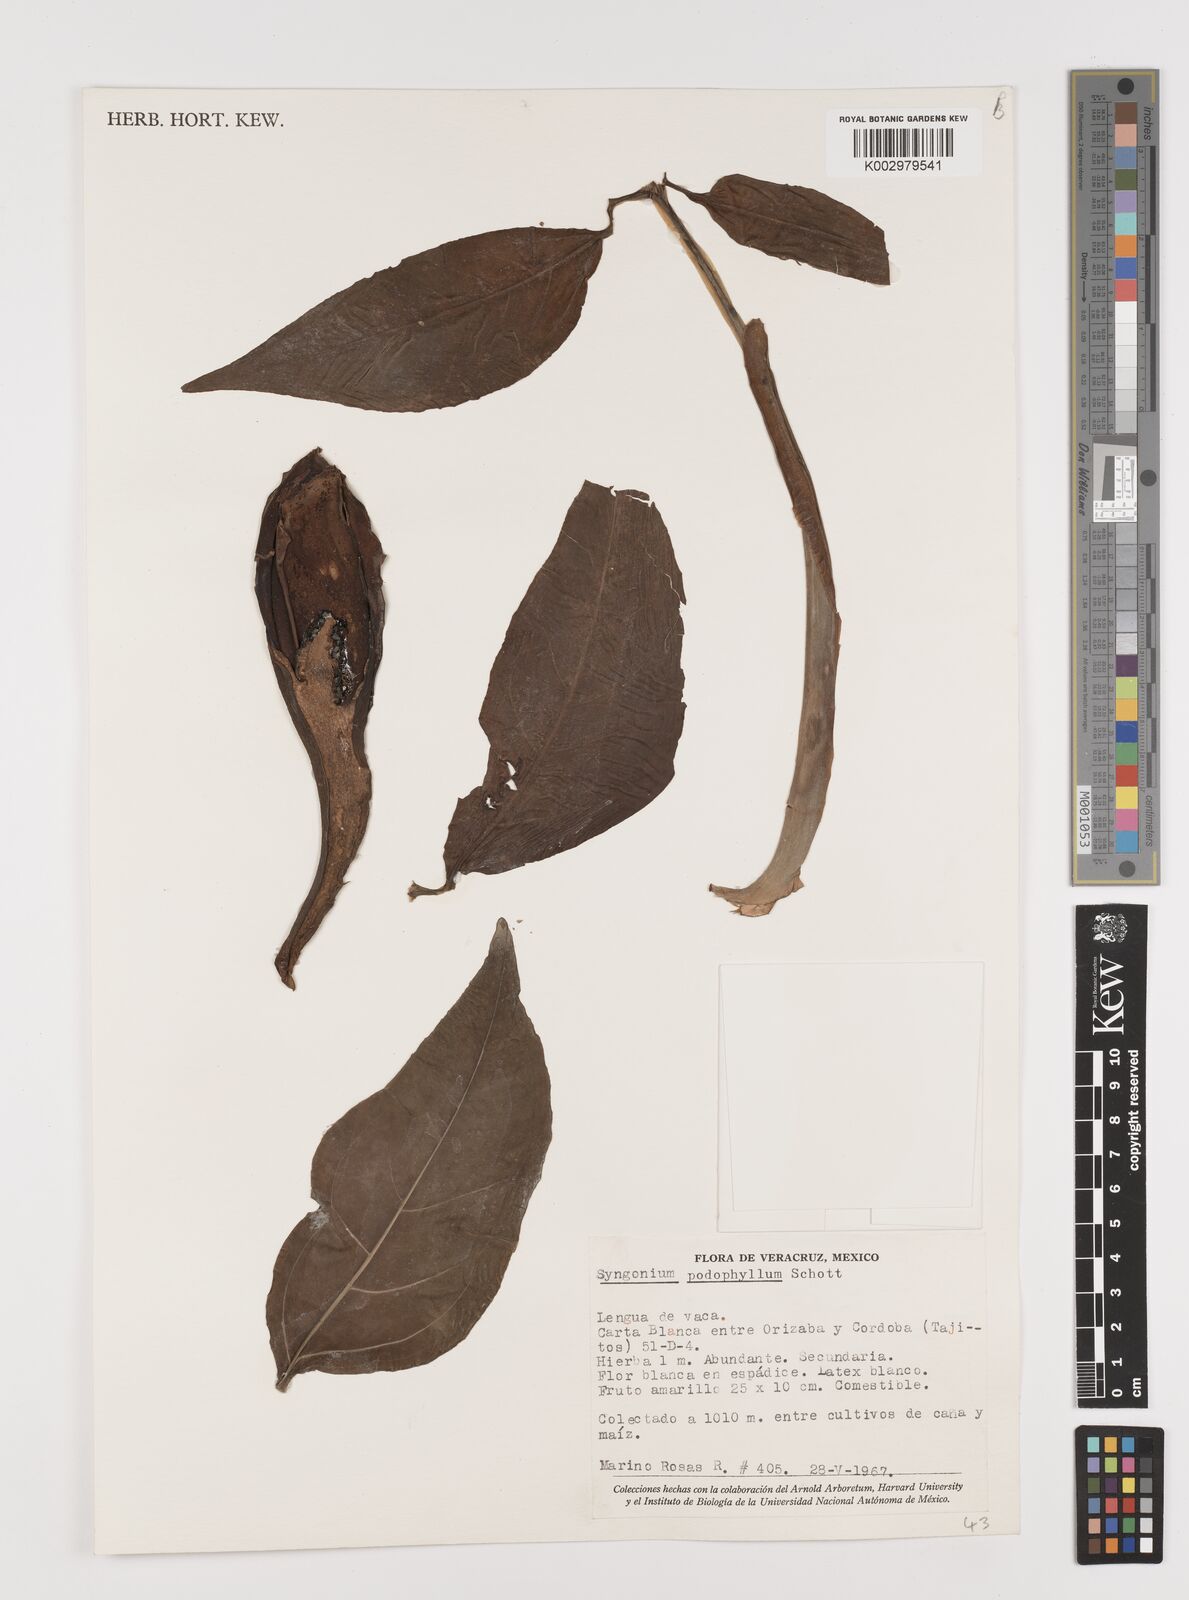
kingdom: Plantae
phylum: Tracheophyta
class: Liliopsida
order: Alismatales
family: Araceae
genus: Syngonium
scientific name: Syngonium podophyllum
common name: American evergreen
